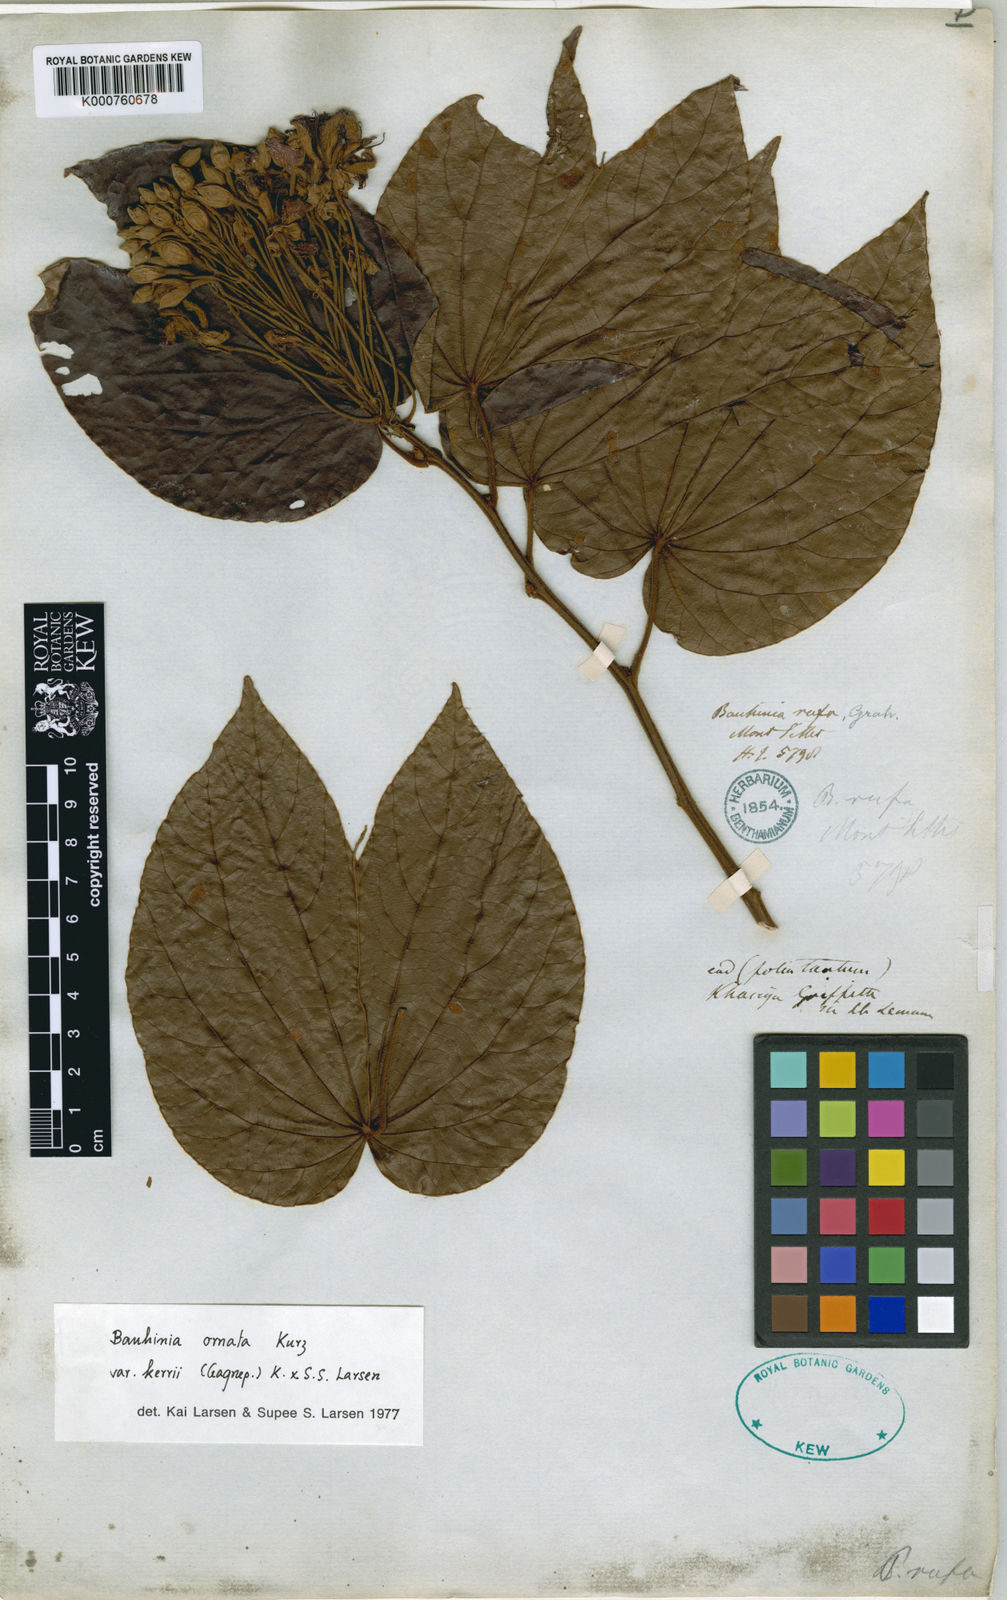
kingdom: Plantae
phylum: Tracheophyta
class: Magnoliopsida
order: Fabales
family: Fabaceae
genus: Phanera
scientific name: Phanera ornata
